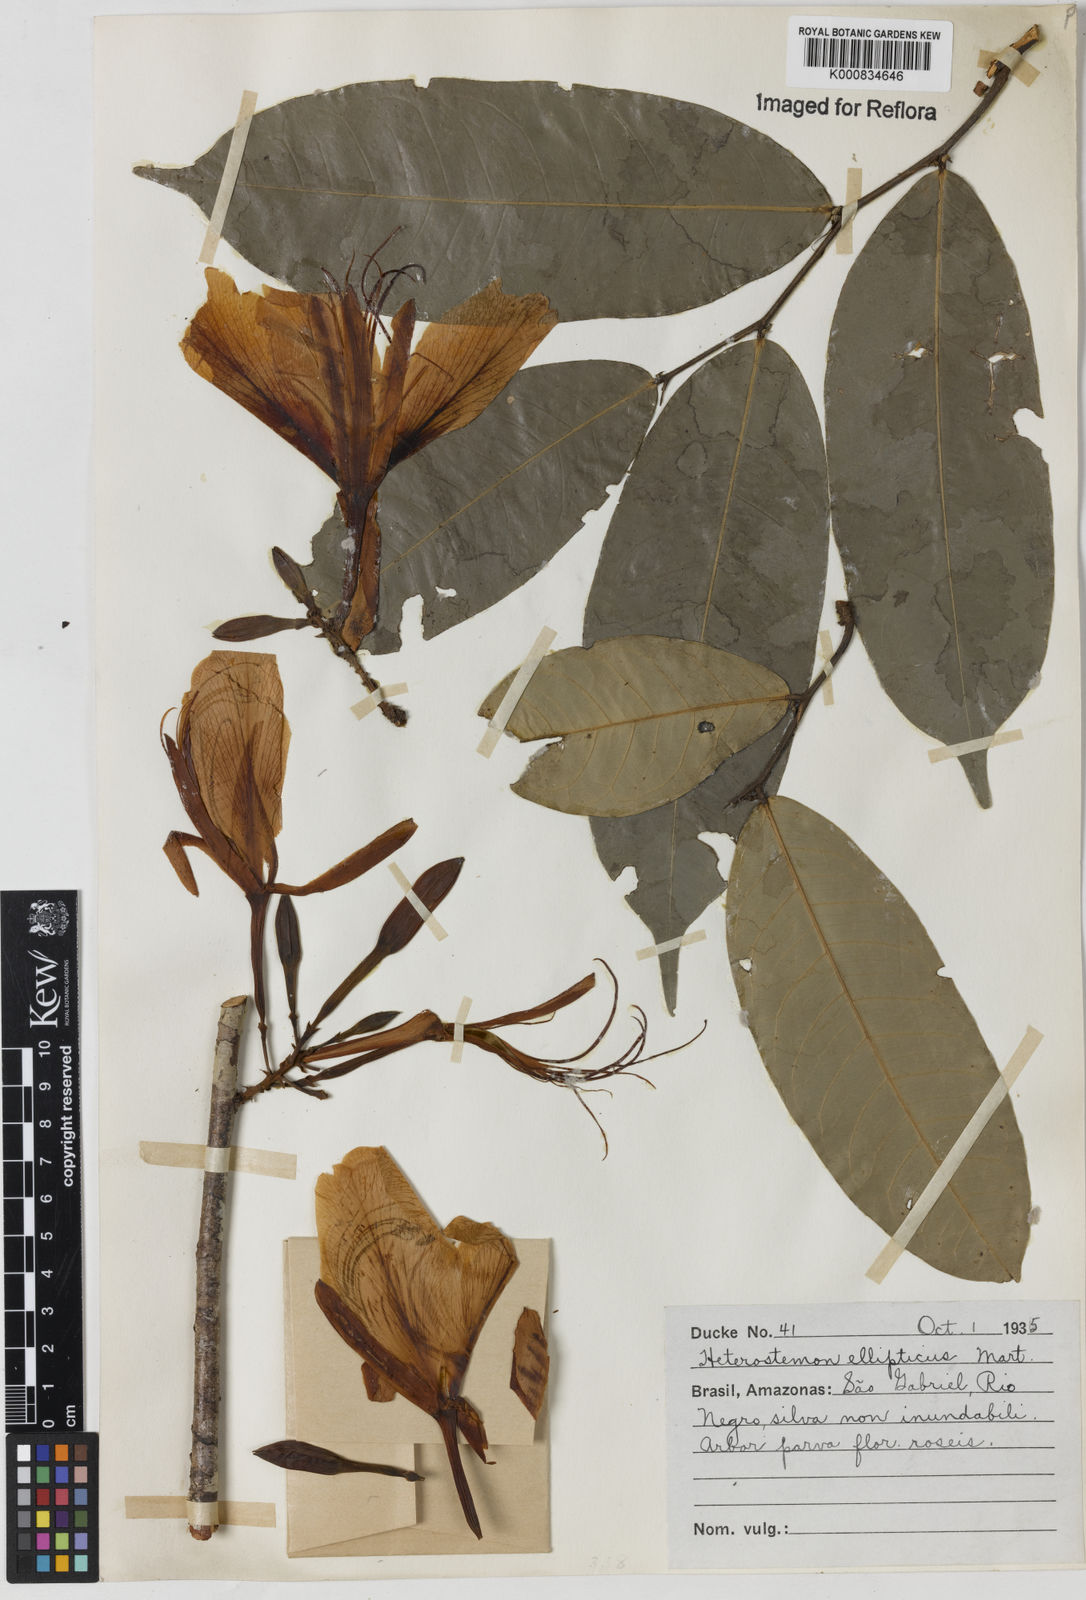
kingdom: Plantae
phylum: Tracheophyta
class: Magnoliopsida
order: Fabales
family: Fabaceae
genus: Heterostemon
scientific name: Heterostemon ellipticus
